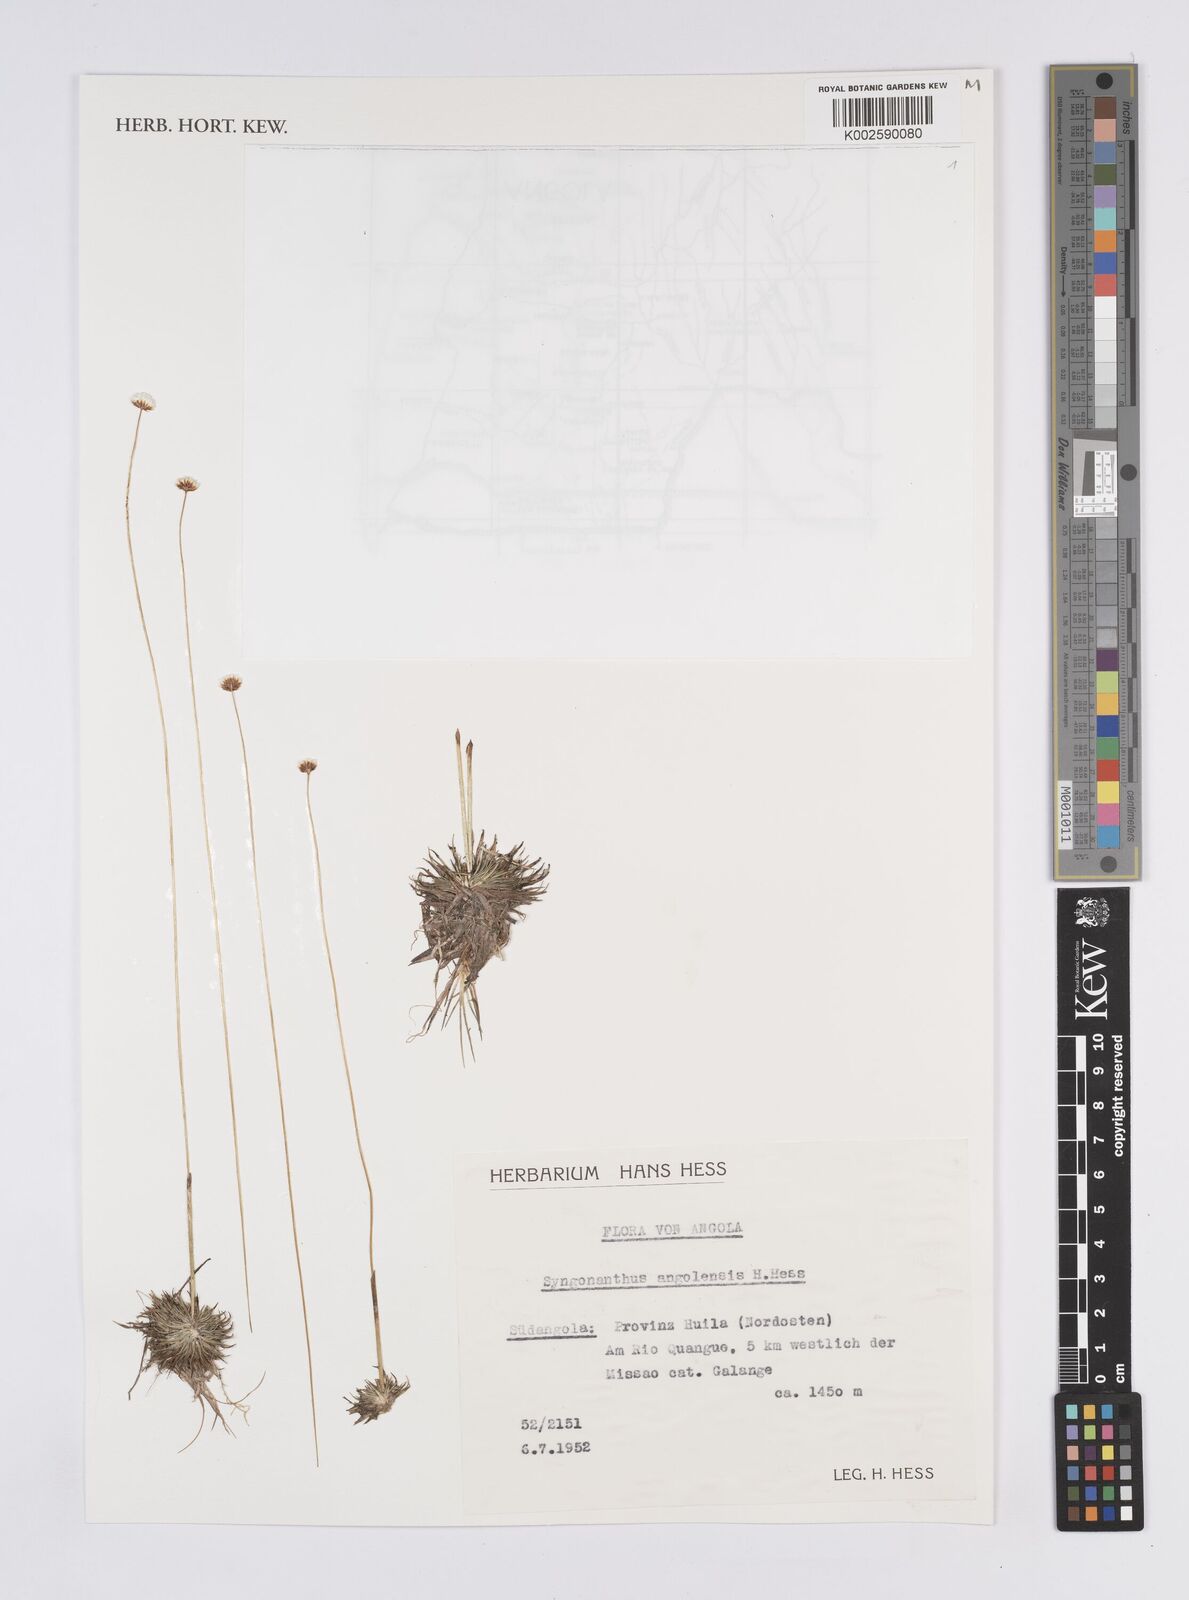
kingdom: Plantae
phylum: Tracheophyta
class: Liliopsida
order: Poales
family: Eriocaulaceae
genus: Syngonanthus
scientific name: Syngonanthus angolensis
